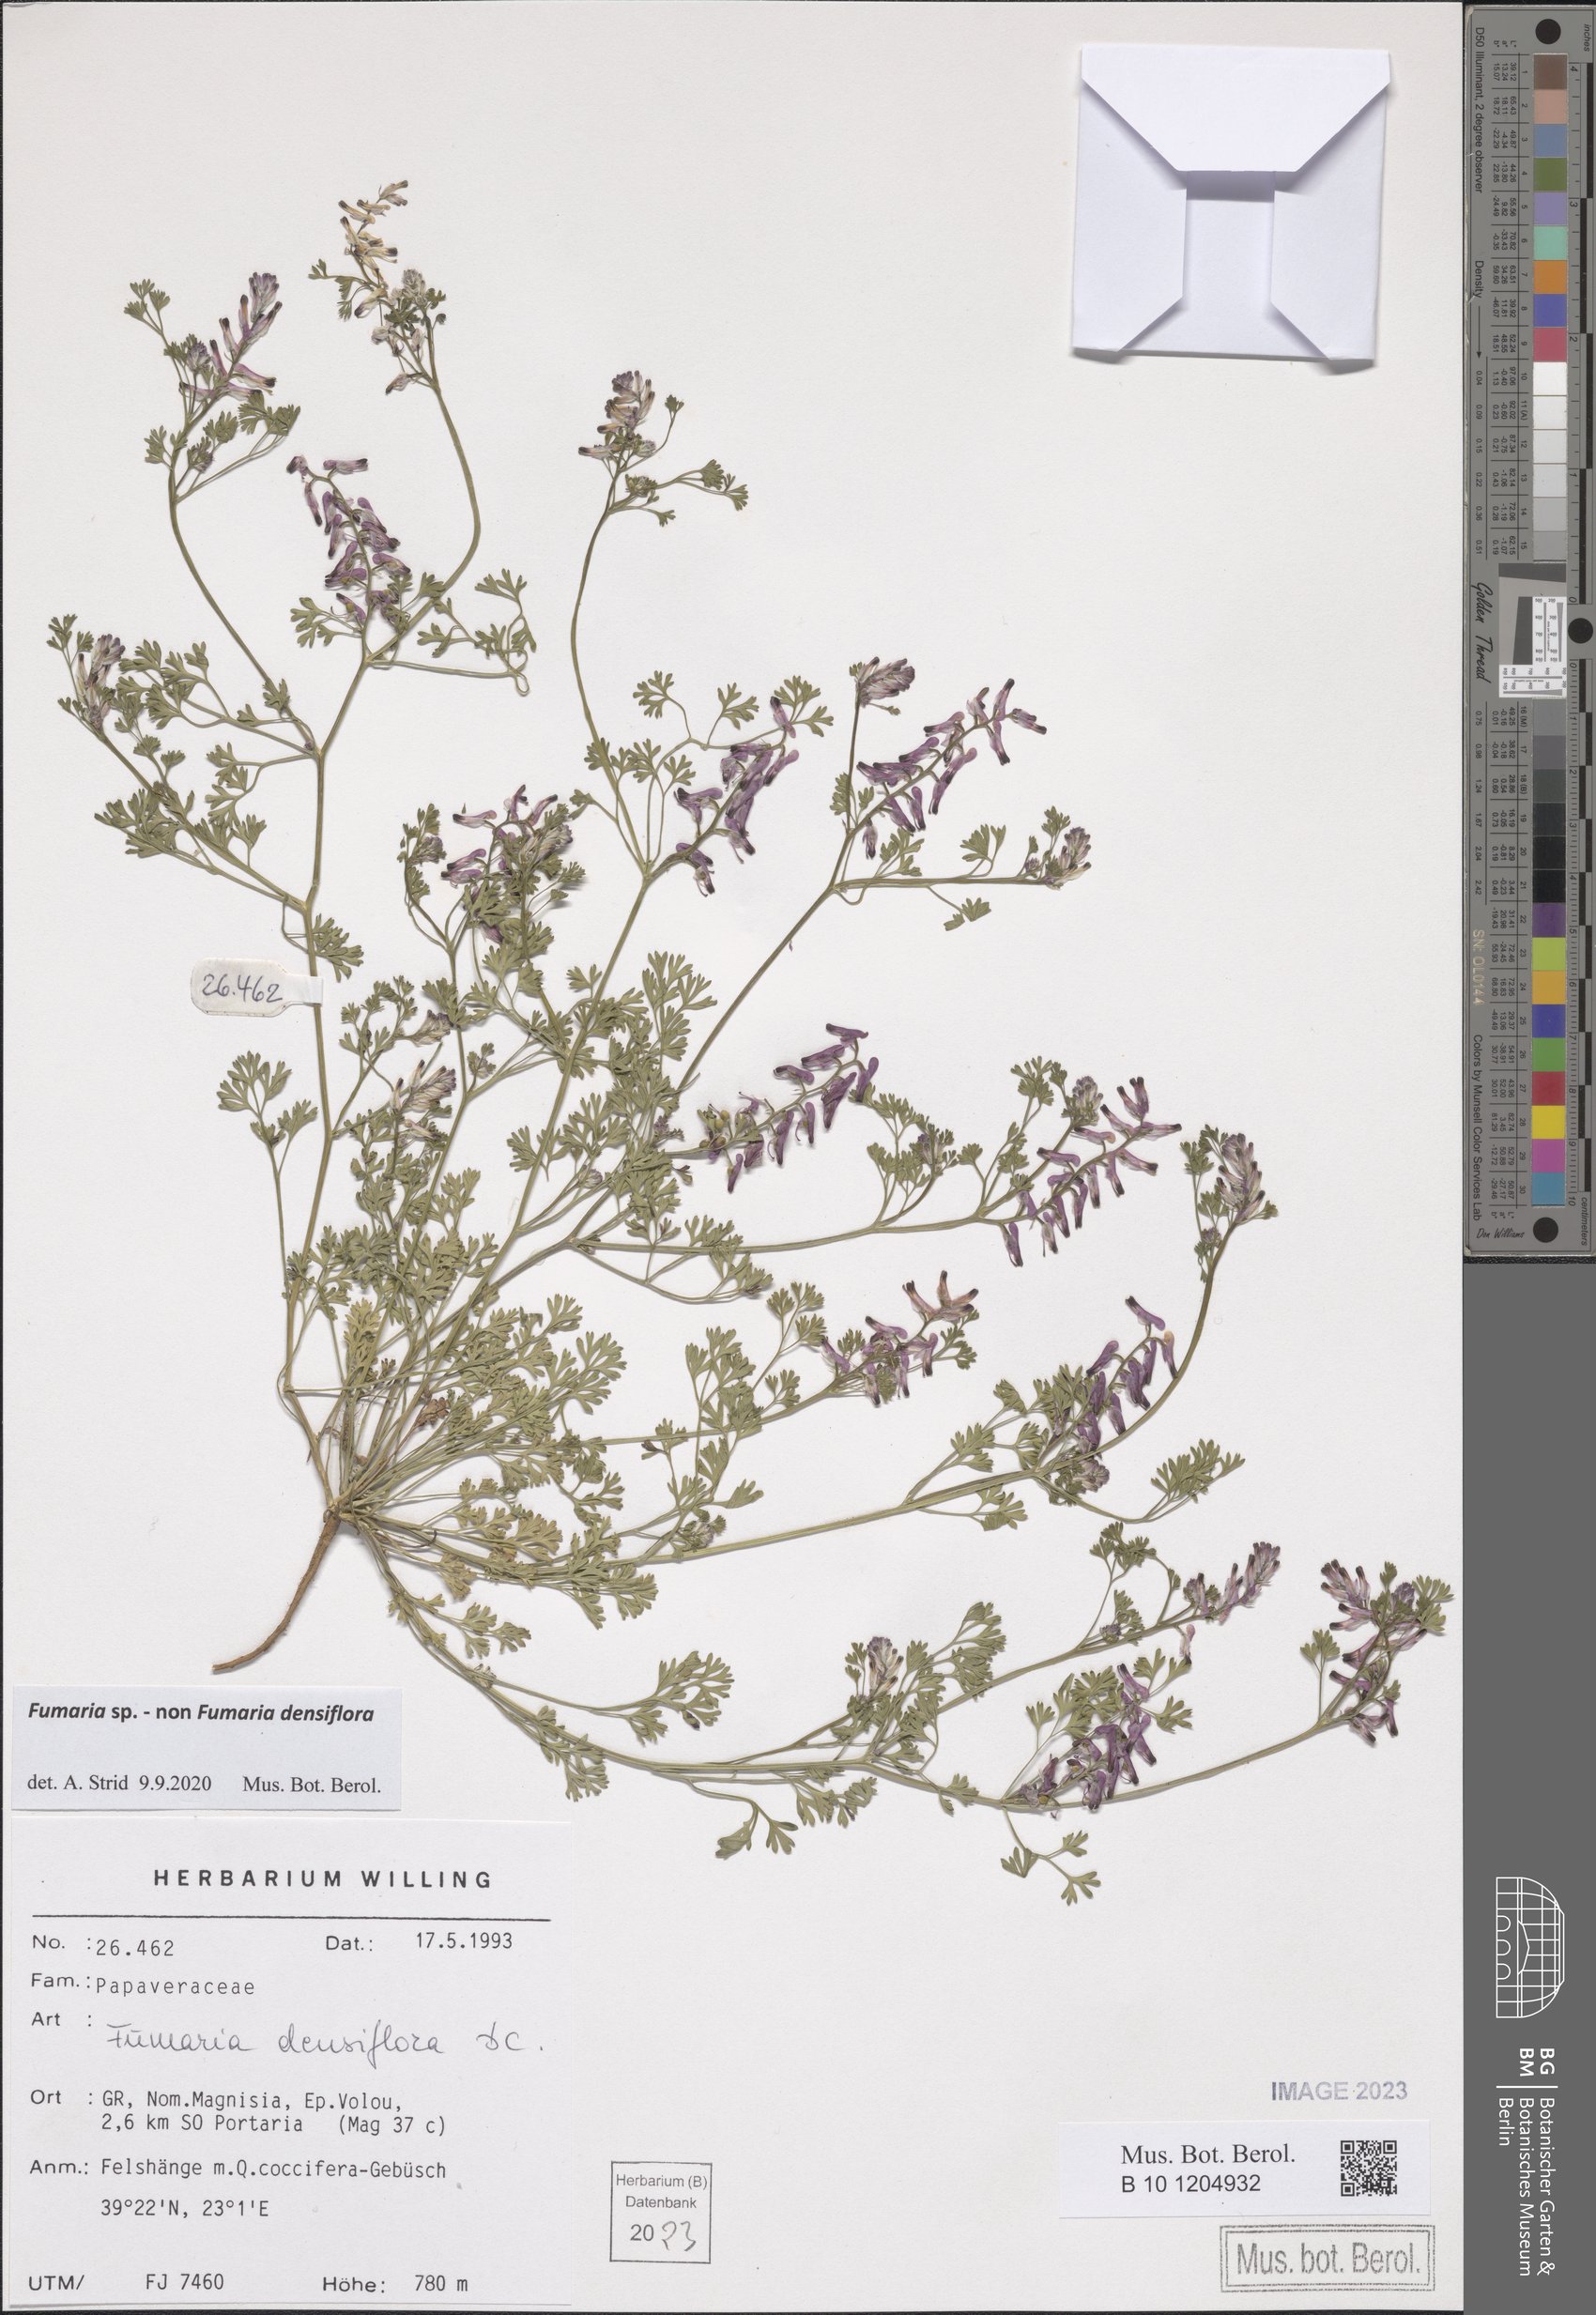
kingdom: Plantae
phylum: Tracheophyta
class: Magnoliopsida
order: Ranunculales
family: Papaveraceae
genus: Fumaria
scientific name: Fumaria
